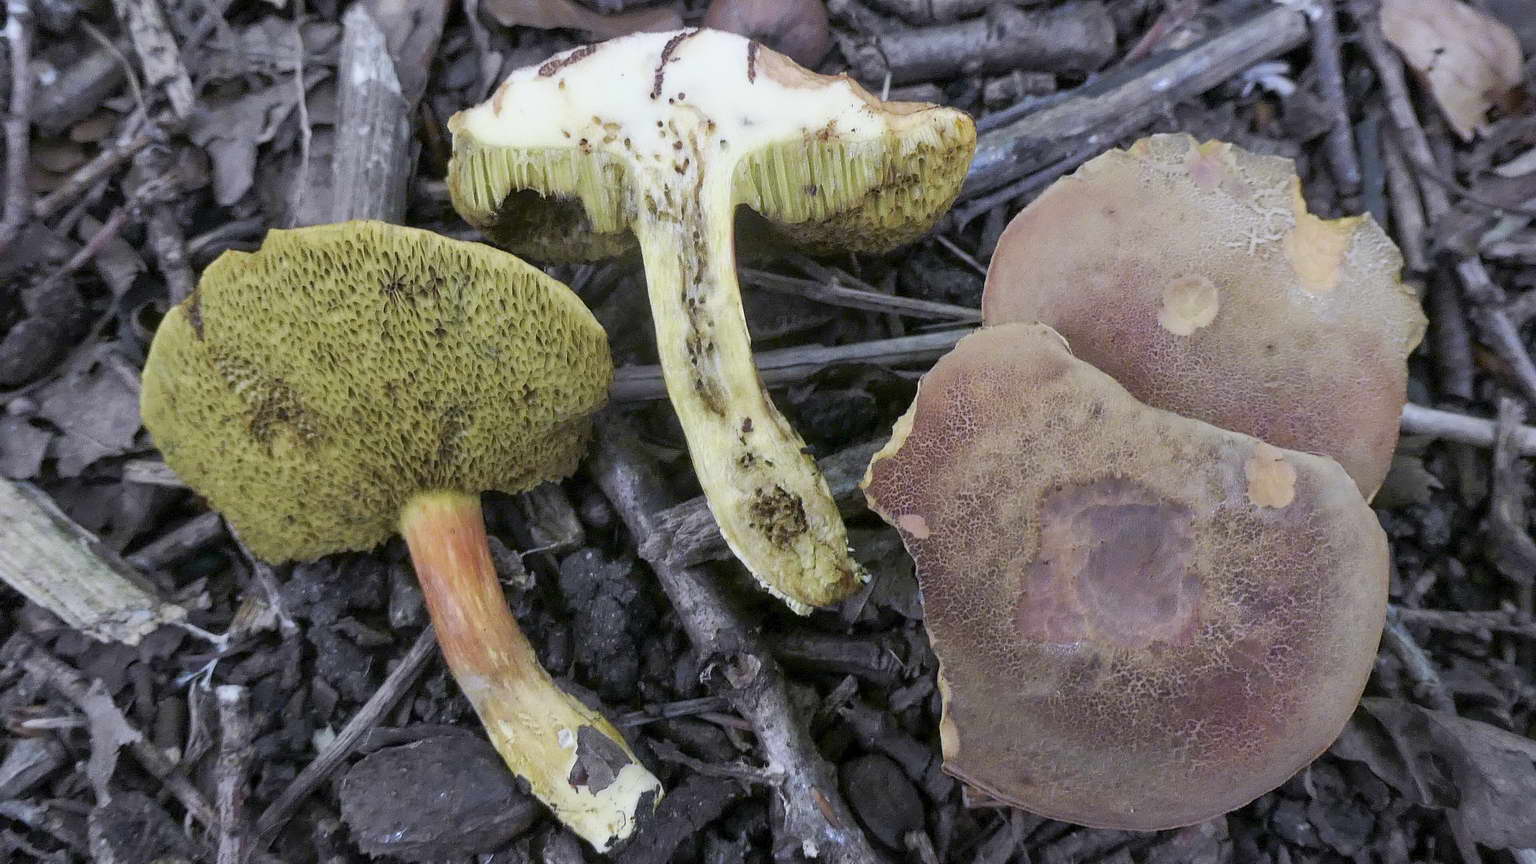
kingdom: Fungi
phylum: Basidiomycota
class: Agaricomycetes
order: Boletales
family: Boletaceae
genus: Hortiboletus
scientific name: Hortiboletus engelii
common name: fersken-rørhat
